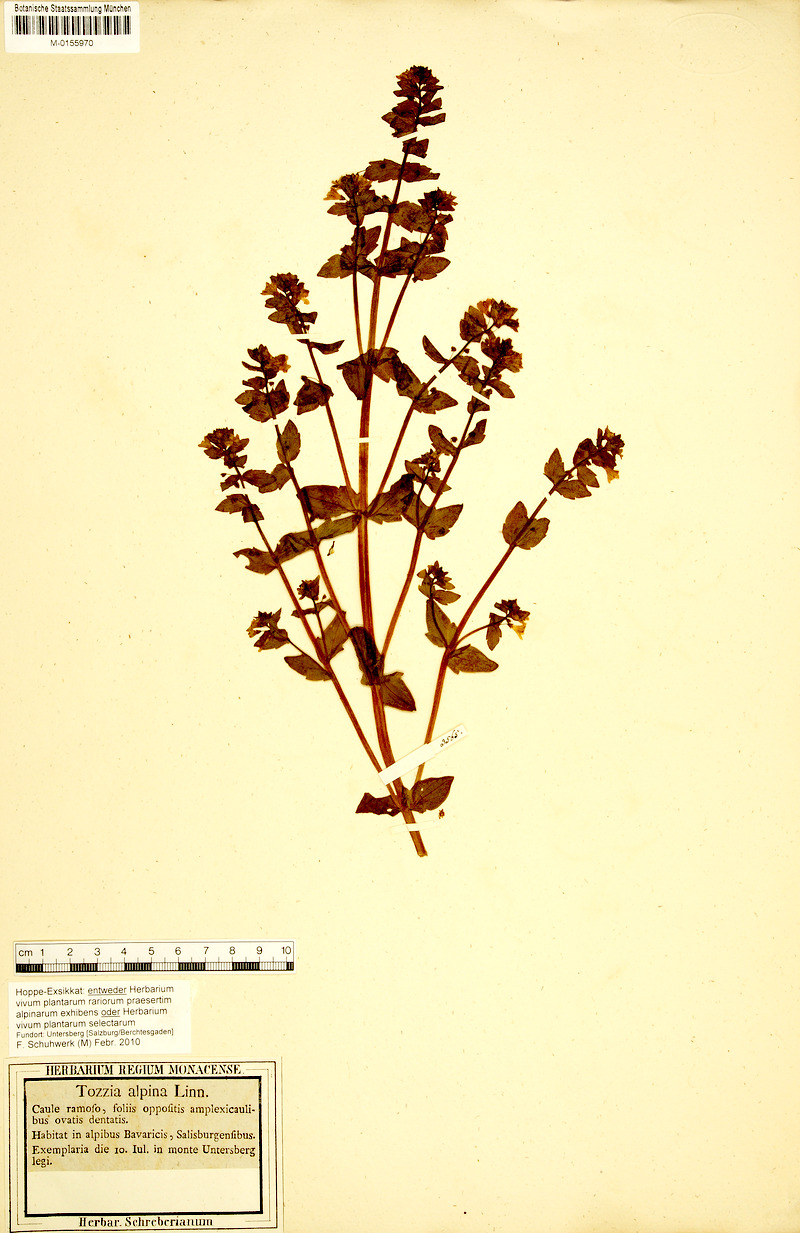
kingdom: Plantae
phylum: Tracheophyta
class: Magnoliopsida
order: Lamiales
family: Orobanchaceae
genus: Tozzia
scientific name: Tozzia alpina
